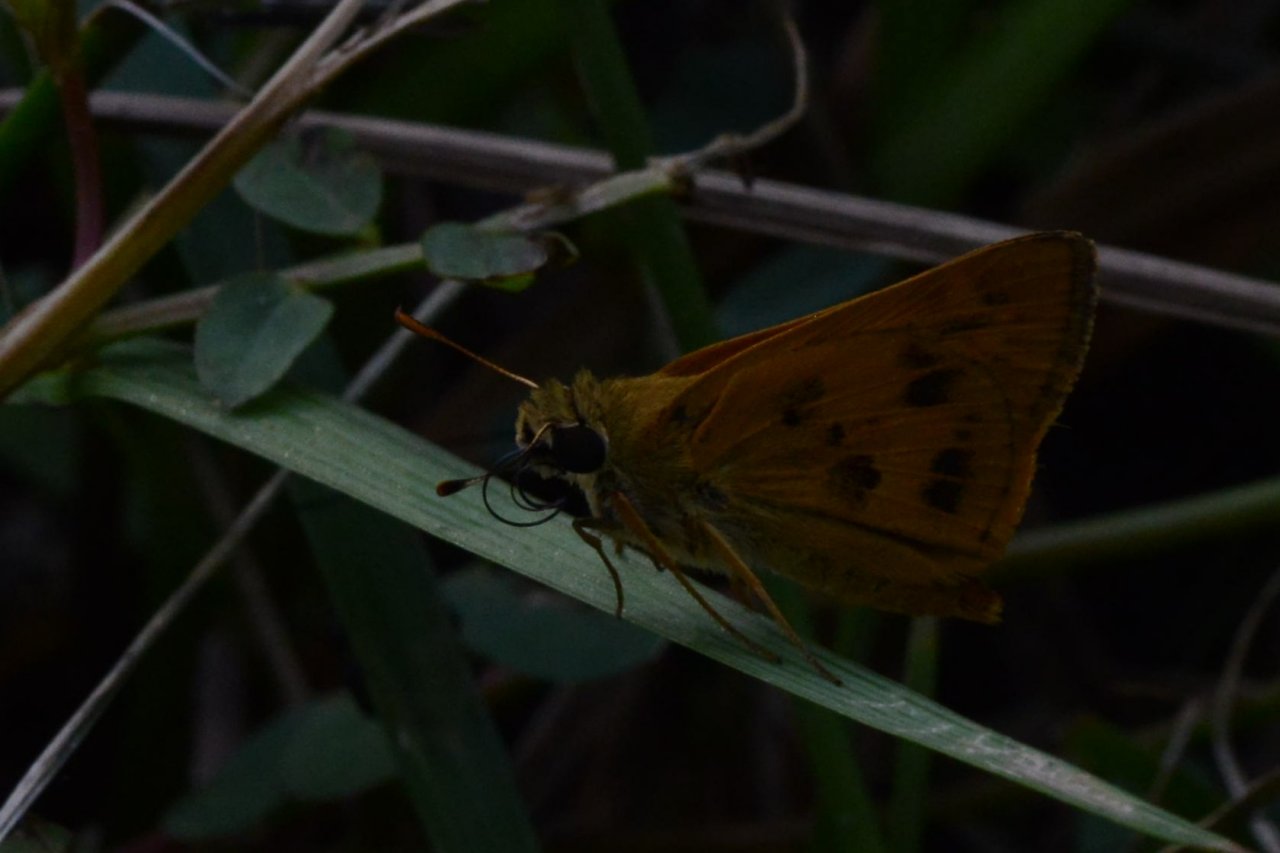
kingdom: Animalia
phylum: Arthropoda
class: Insecta
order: Lepidoptera
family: Hesperiidae
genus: Polites
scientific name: Polites vibex
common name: Whirlabout
